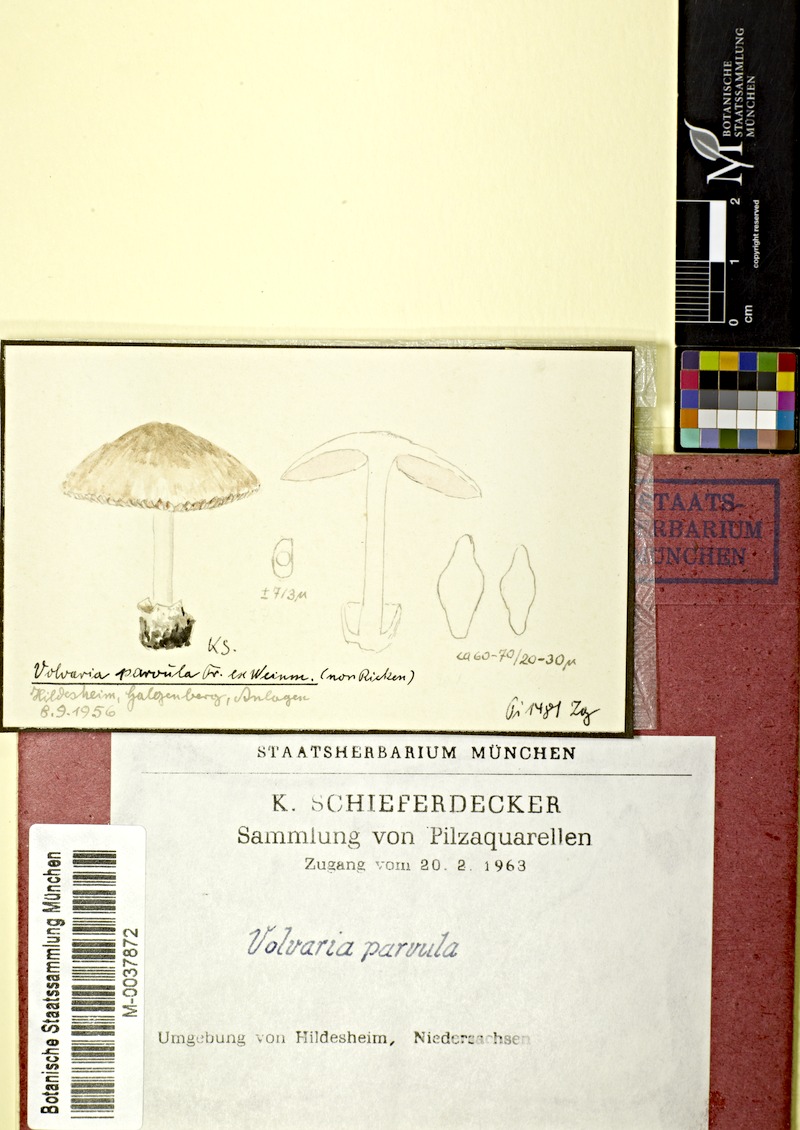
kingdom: Fungi
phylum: Basidiomycota
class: Agaricomycetes
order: Agaricales
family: Pluteaceae
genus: Volvariella
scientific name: Volvariella pusilla
